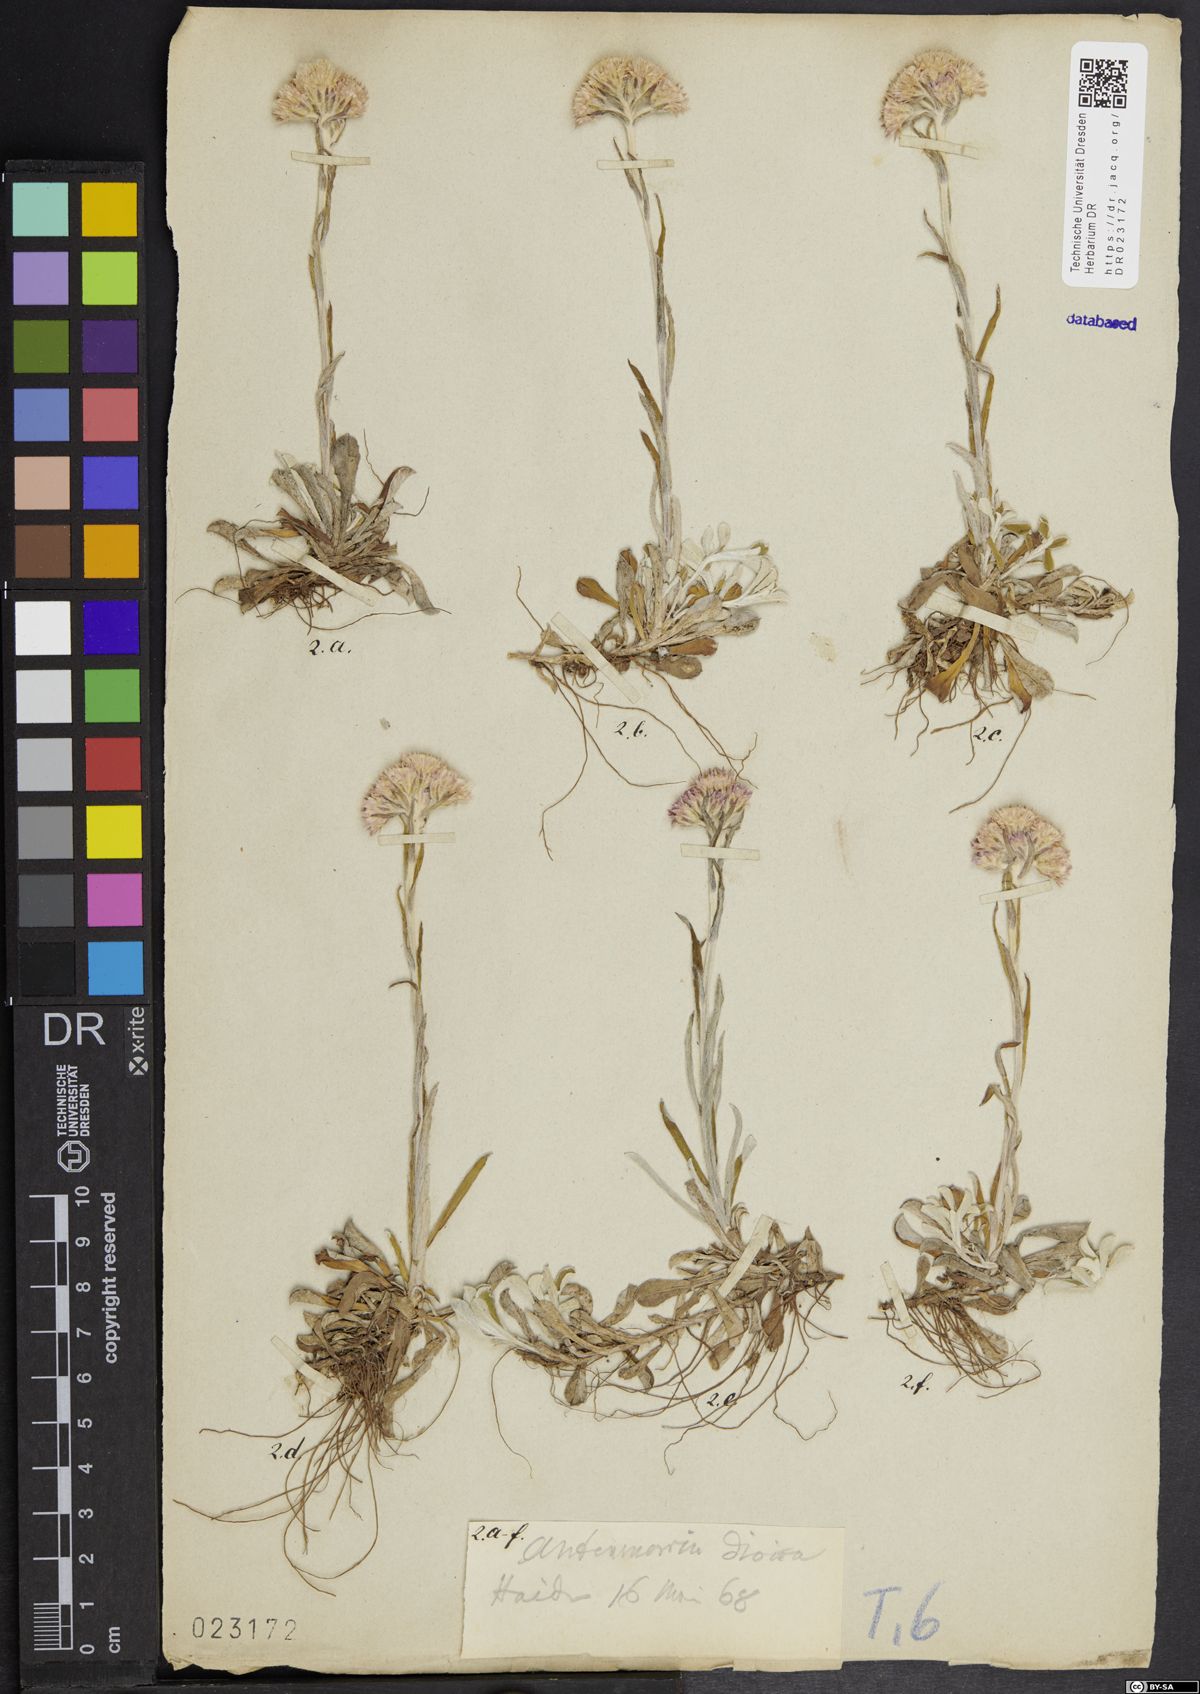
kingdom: Plantae
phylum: Tracheophyta
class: Magnoliopsida
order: Asterales
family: Asteraceae
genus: Antennaria
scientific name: Antennaria dioica
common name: Mountain everlasting
